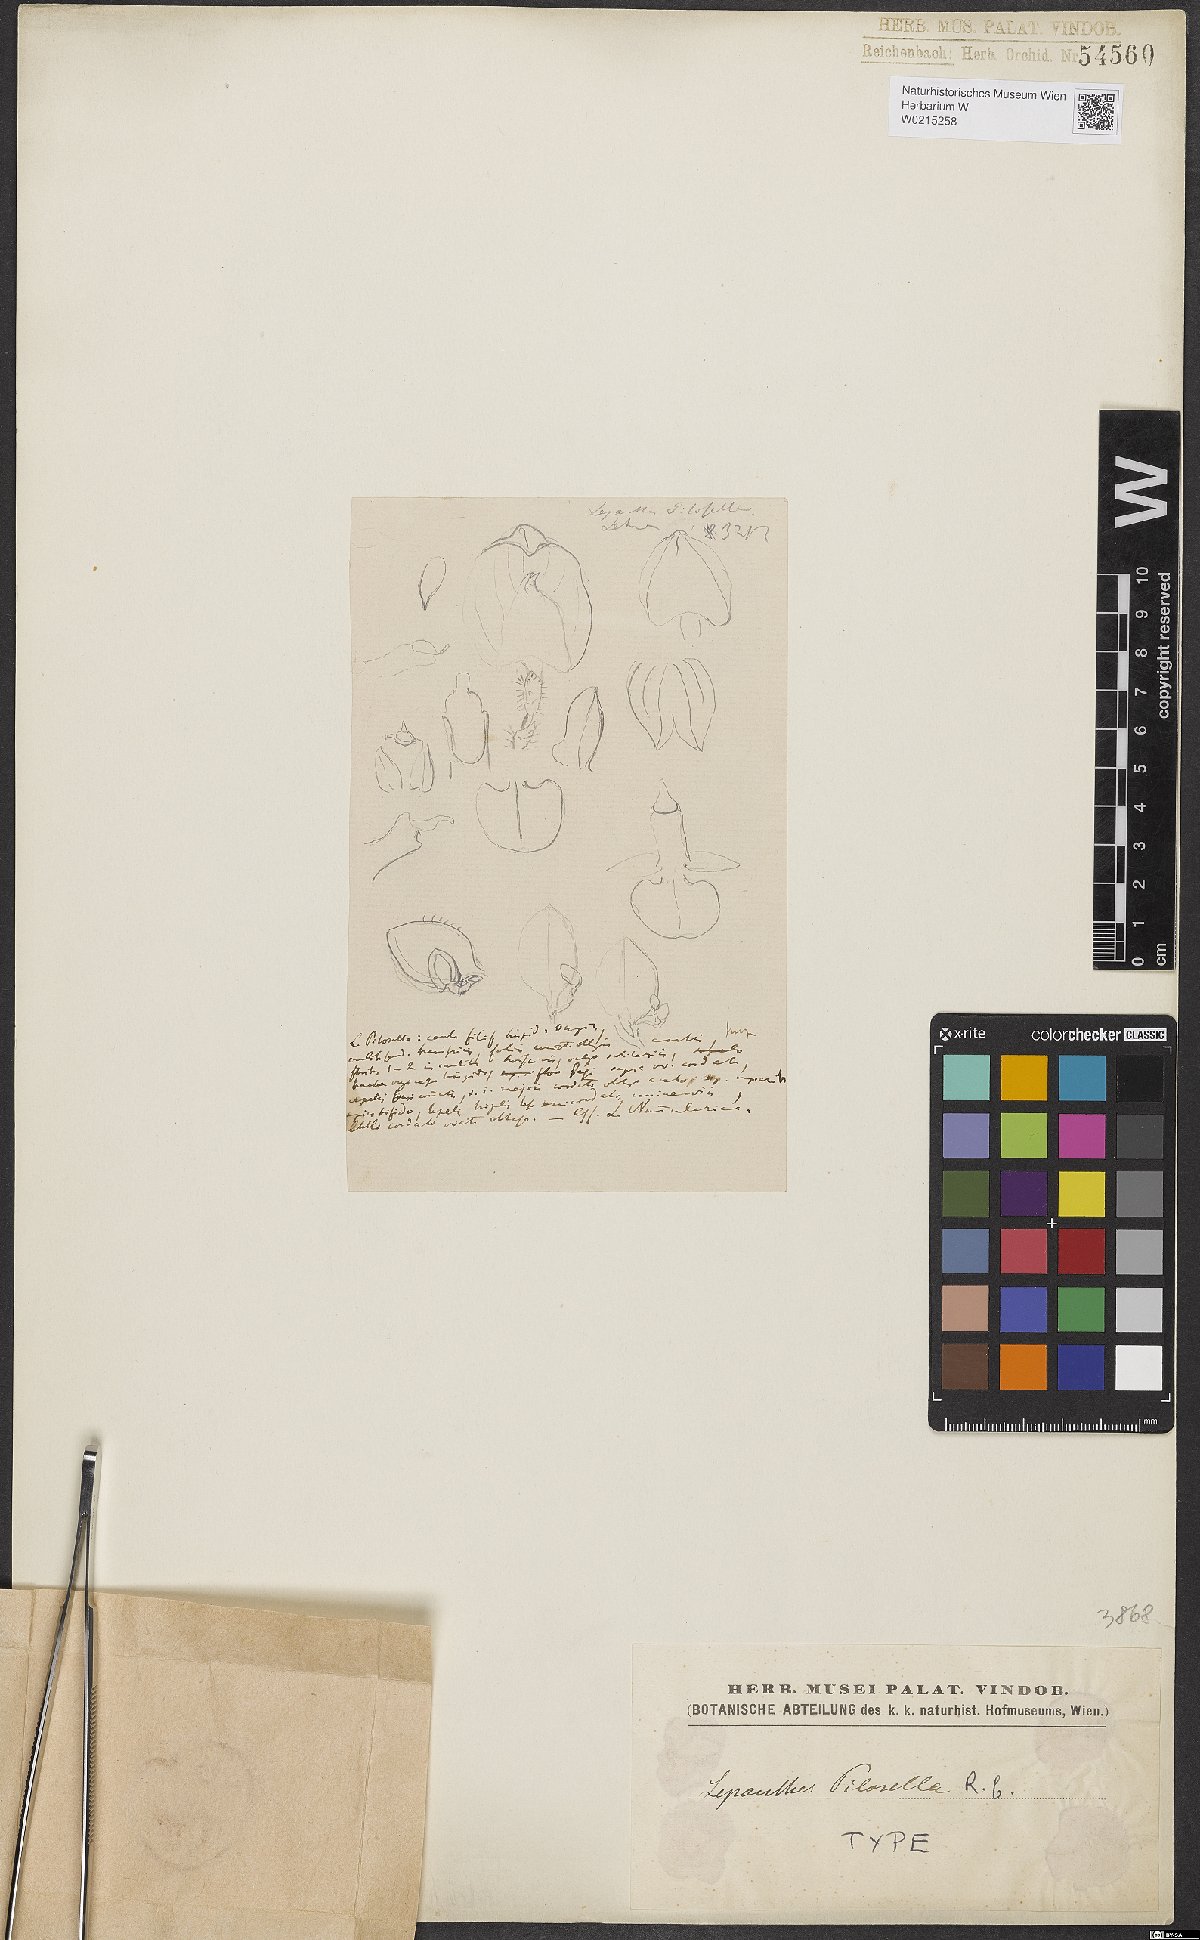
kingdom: Plantae
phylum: Tracheophyta
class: Liliopsida
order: Asparagales
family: Orchidaceae
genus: Lepanthes
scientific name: Lepanthes
